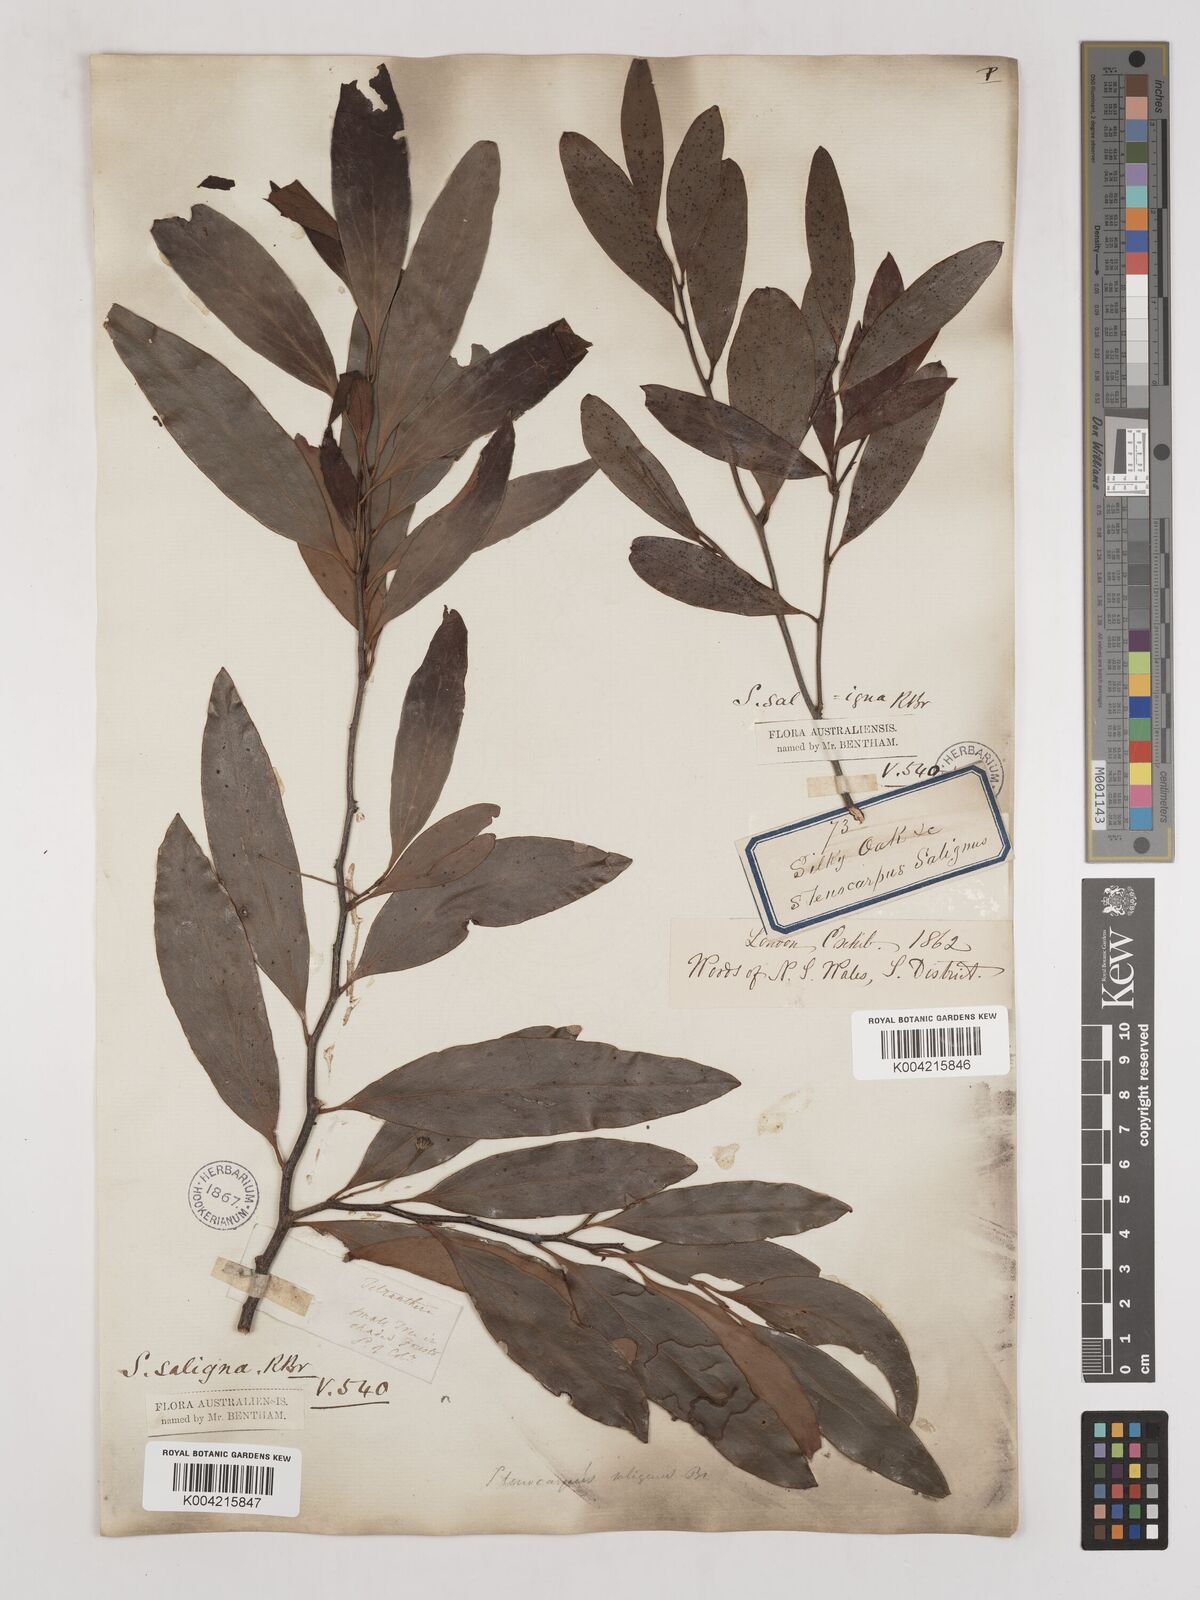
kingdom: Plantae
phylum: Tracheophyta
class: Magnoliopsida
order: Proteales
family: Proteaceae
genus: Stenocarpus
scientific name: Stenocarpus salignus
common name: Red silky-oak
